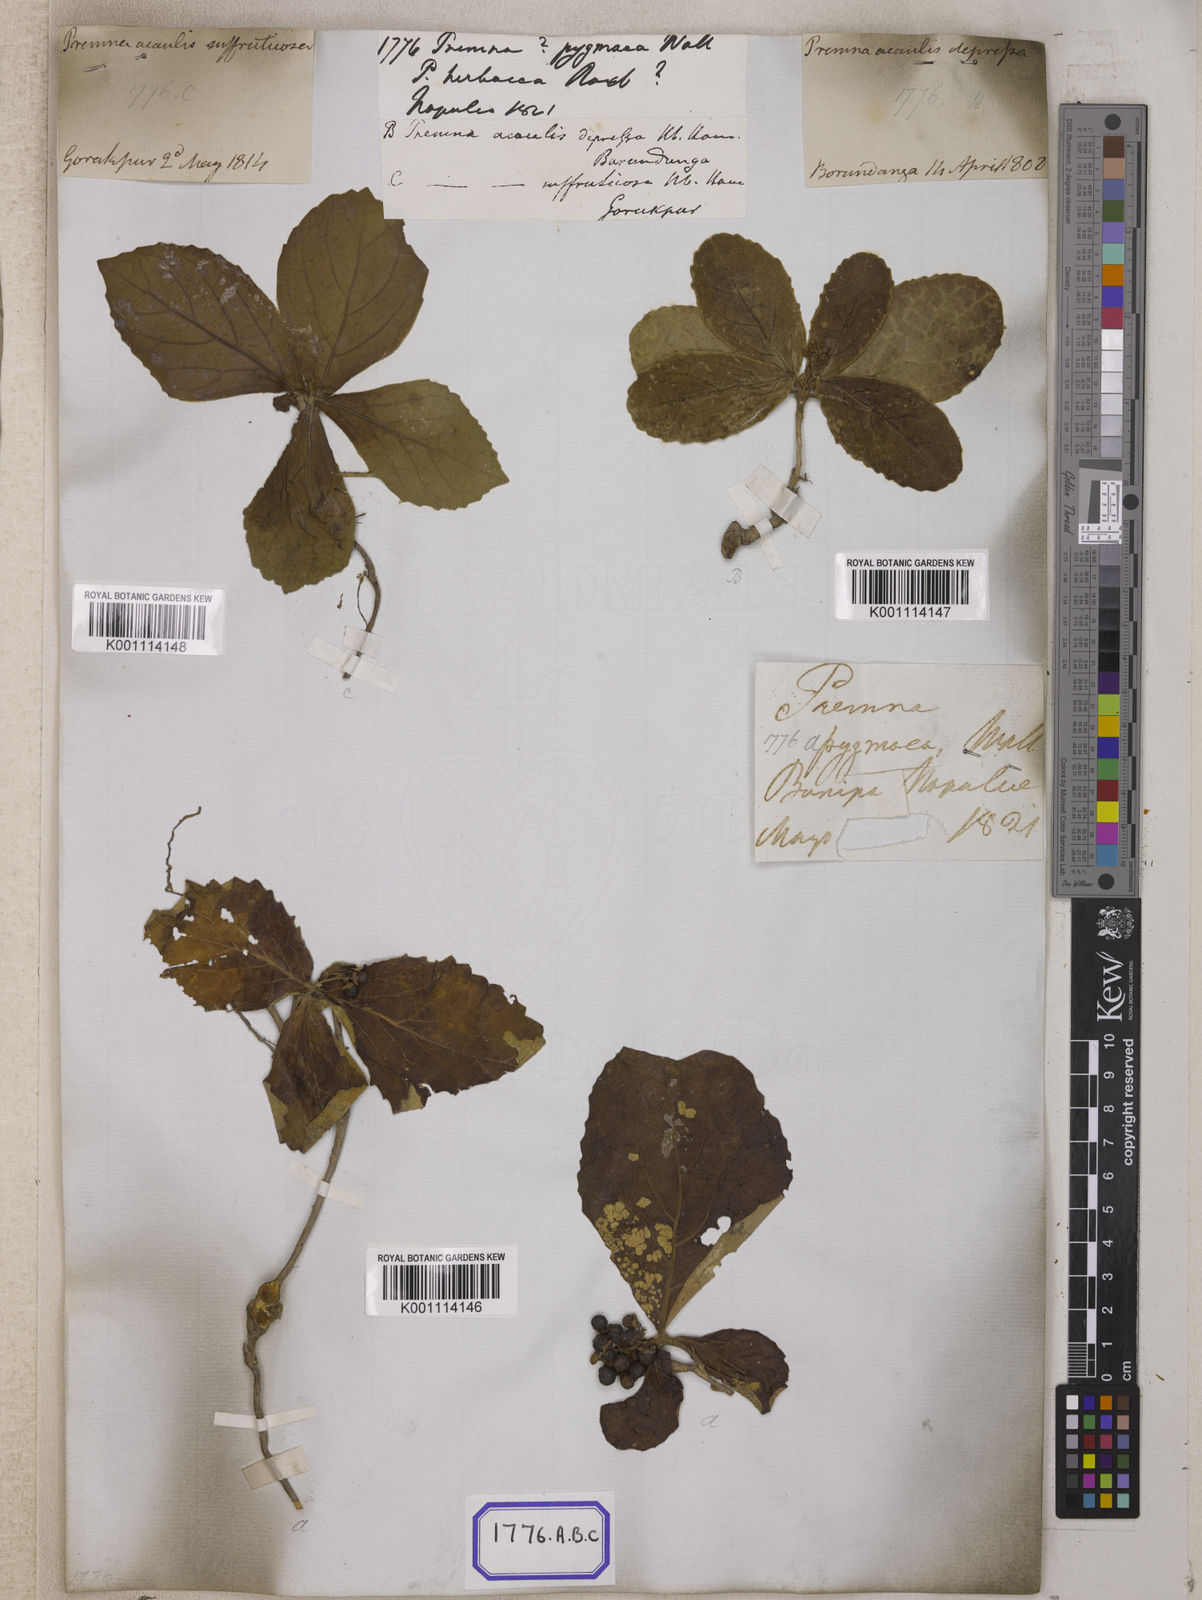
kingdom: Plantae
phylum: Tracheophyta
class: Magnoliopsida
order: Lamiales
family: Lamiaceae
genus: Premna
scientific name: Premna
